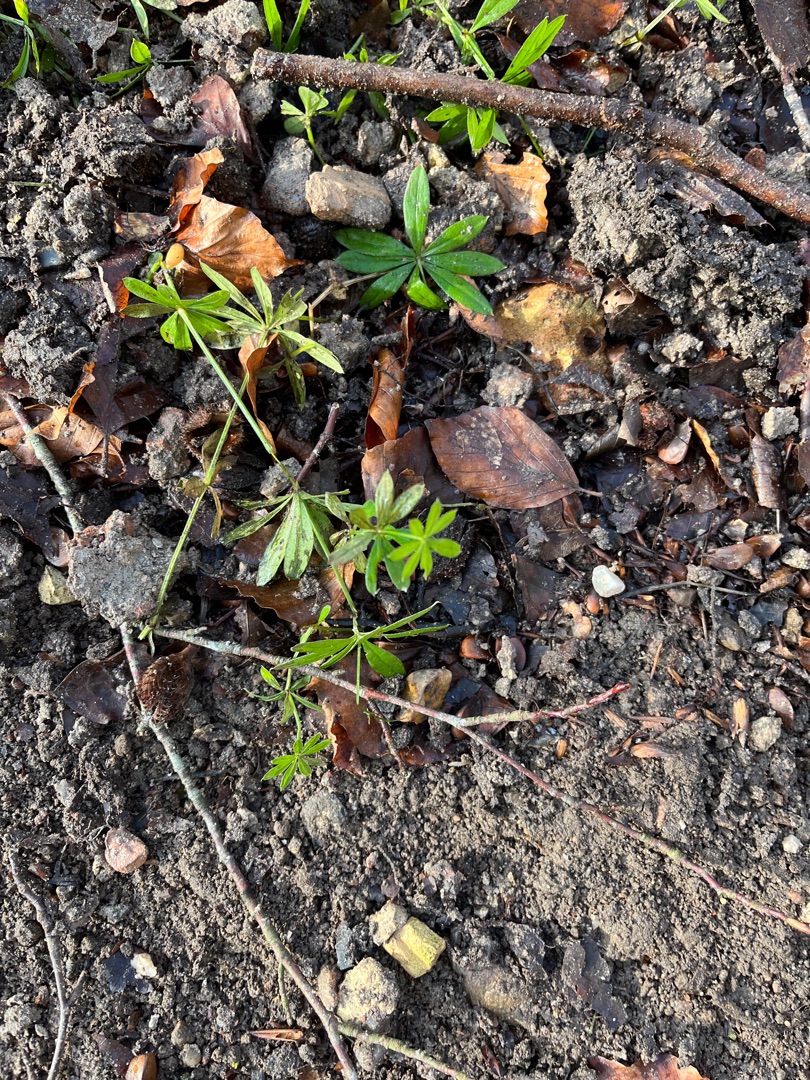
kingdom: Plantae
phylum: Tracheophyta
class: Magnoliopsida
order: Gentianales
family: Rubiaceae
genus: Galium
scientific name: Galium odoratum
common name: Skovmærke
